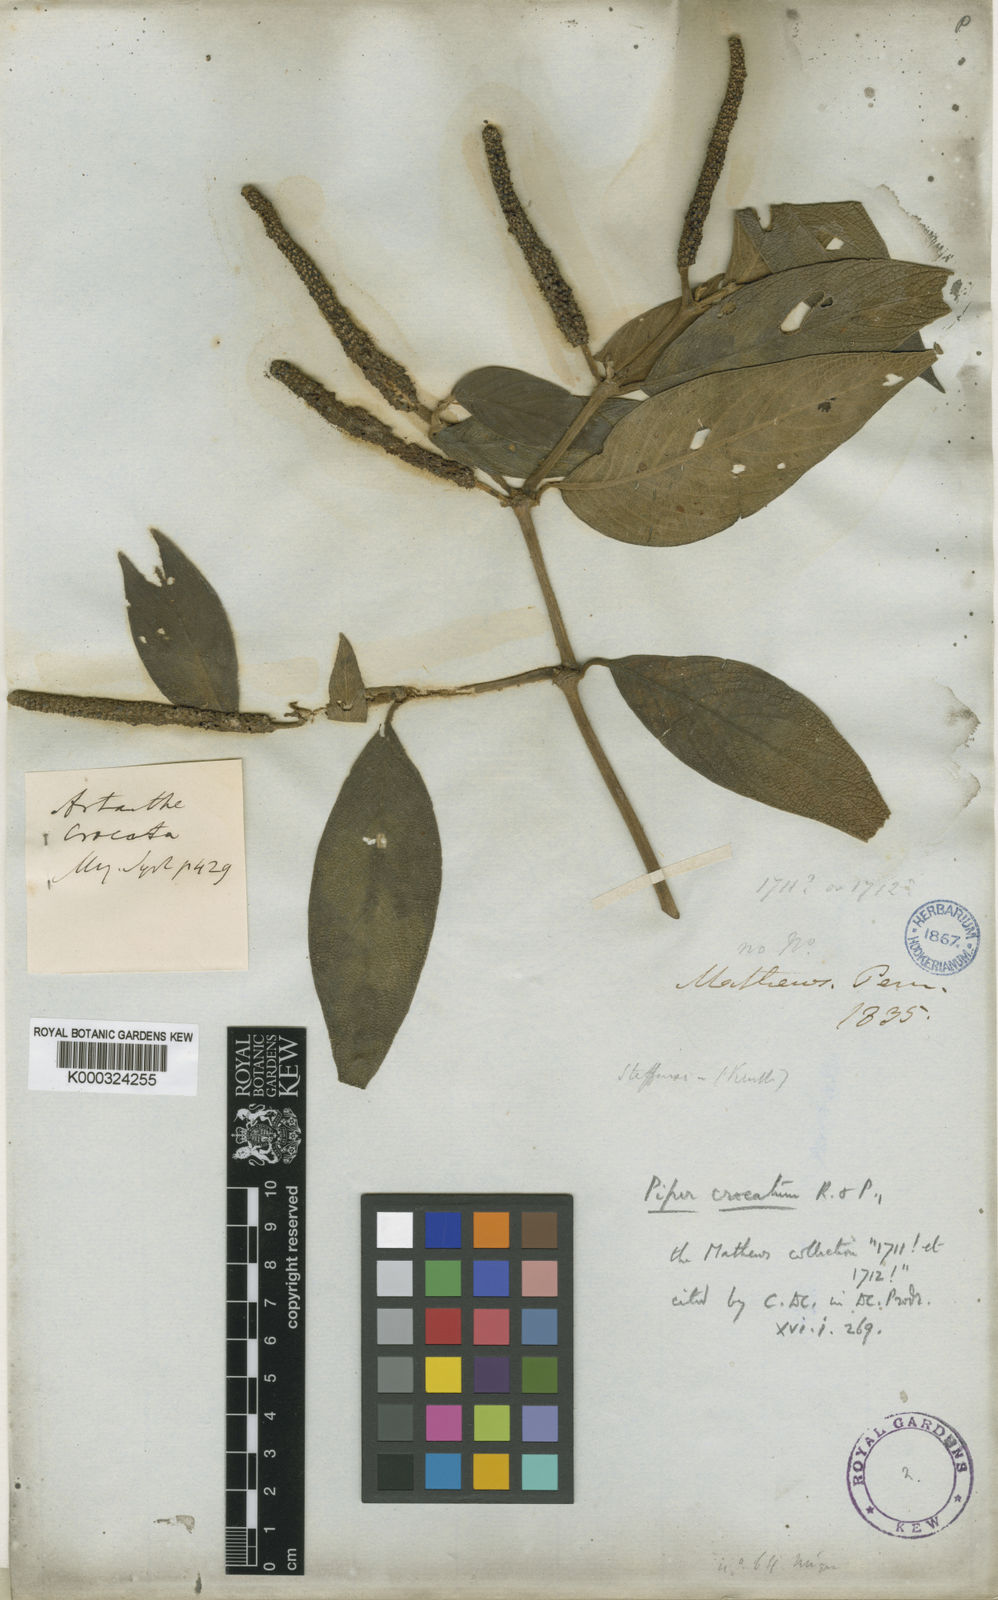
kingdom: Plantae
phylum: Tracheophyta
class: Magnoliopsida
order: Piperales
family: Piperaceae
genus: Piper
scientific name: Piper crocatum
